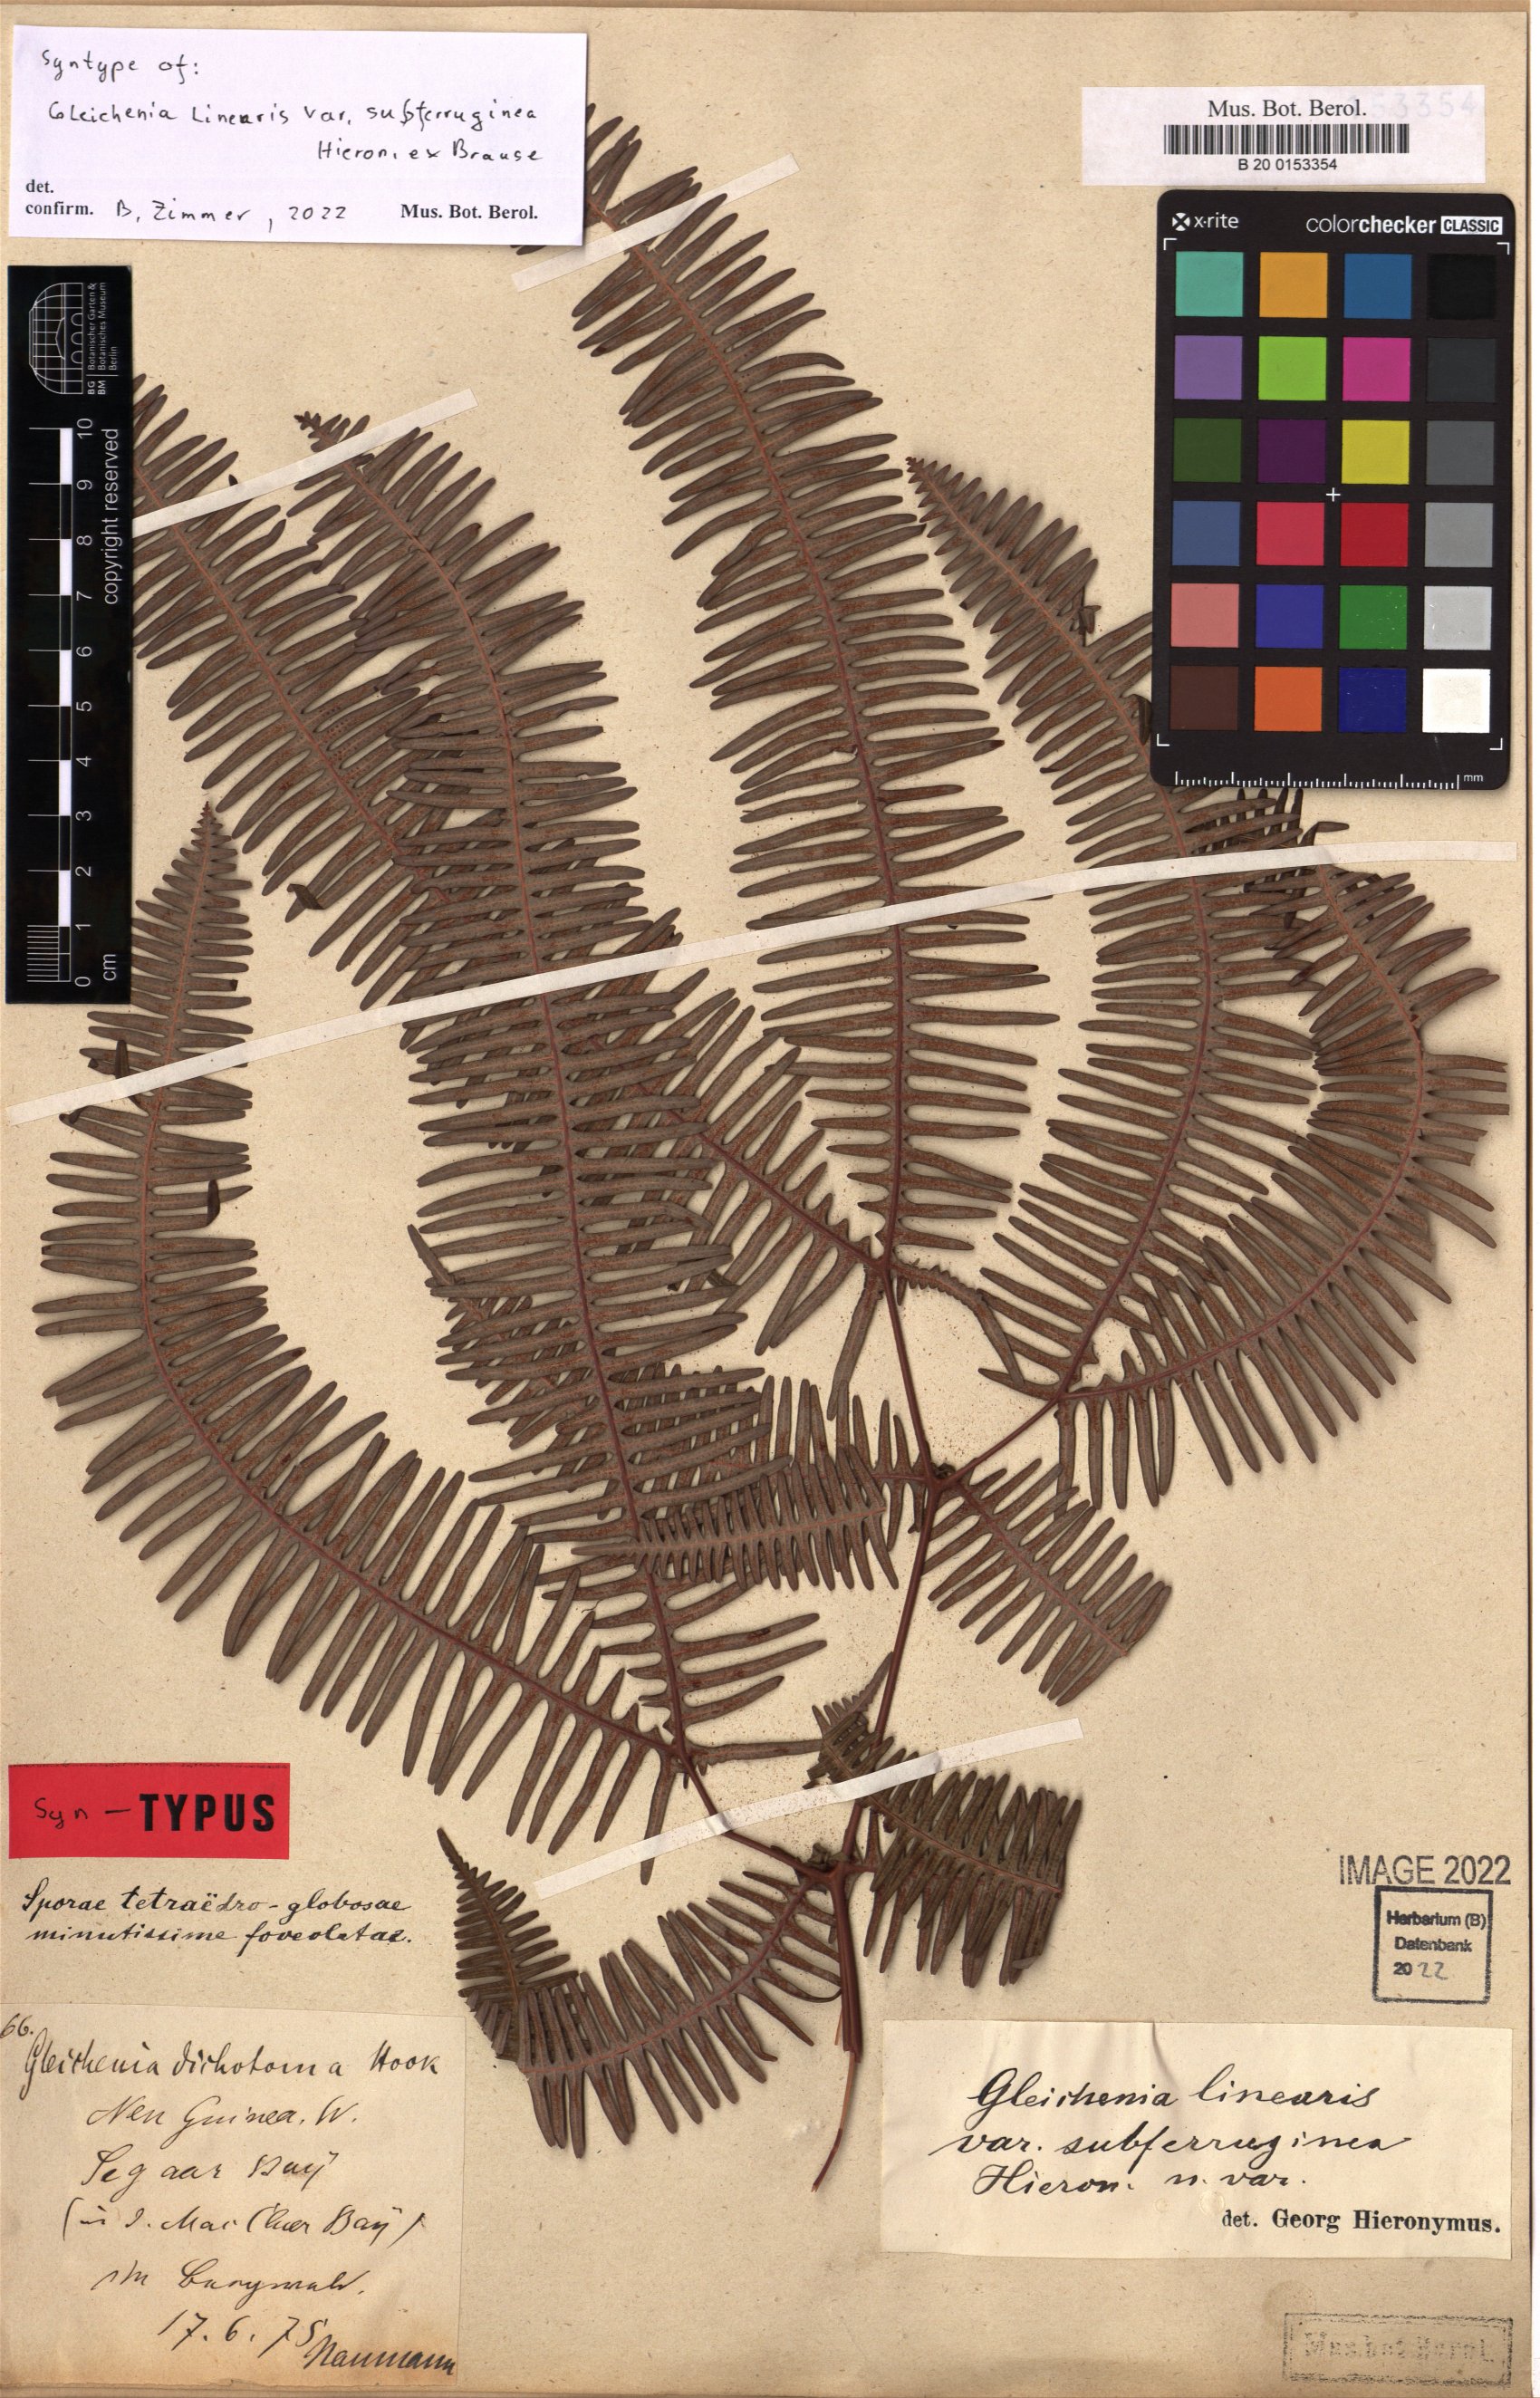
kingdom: Plantae
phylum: Tracheophyta
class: Polypodiopsida
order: Gleicheniales
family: Gleicheniaceae
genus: Dicranopteris
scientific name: Dicranopteris linearis
